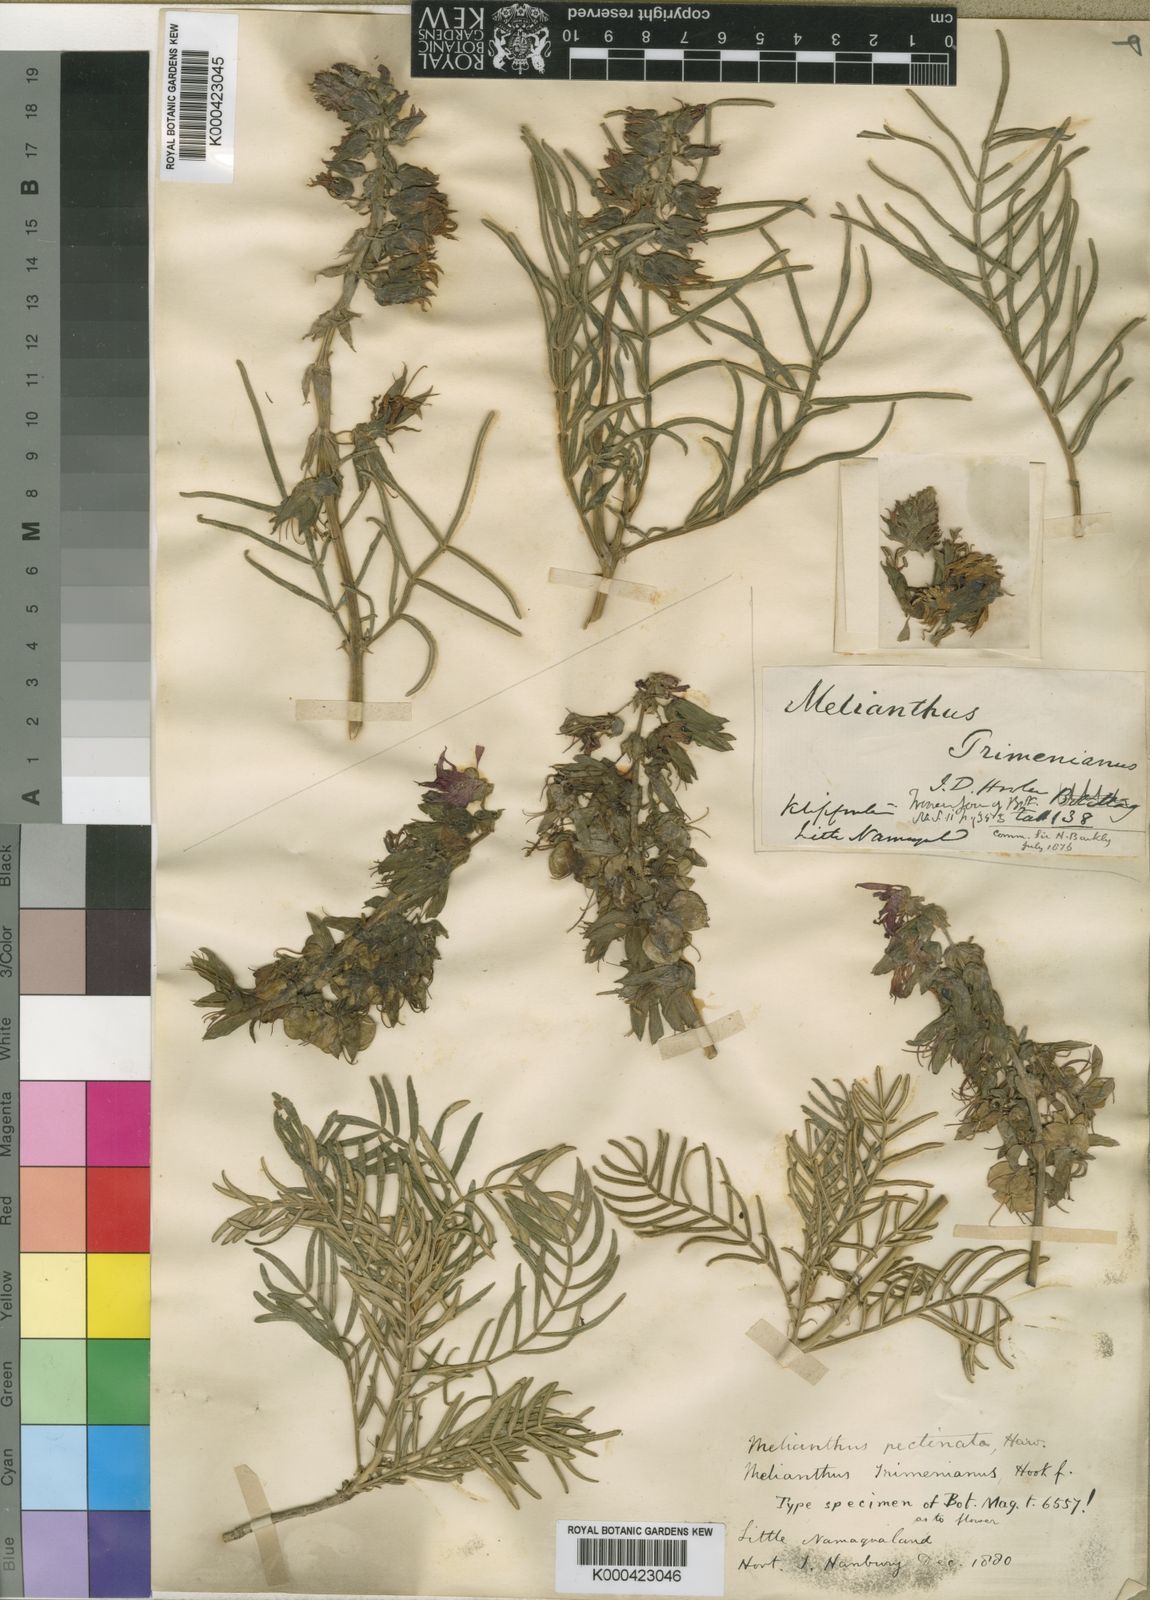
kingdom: Plantae
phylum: Tracheophyta
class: Magnoliopsida
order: Geraniales
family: Melianthaceae
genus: Melianthus
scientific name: Melianthus pectinatus
